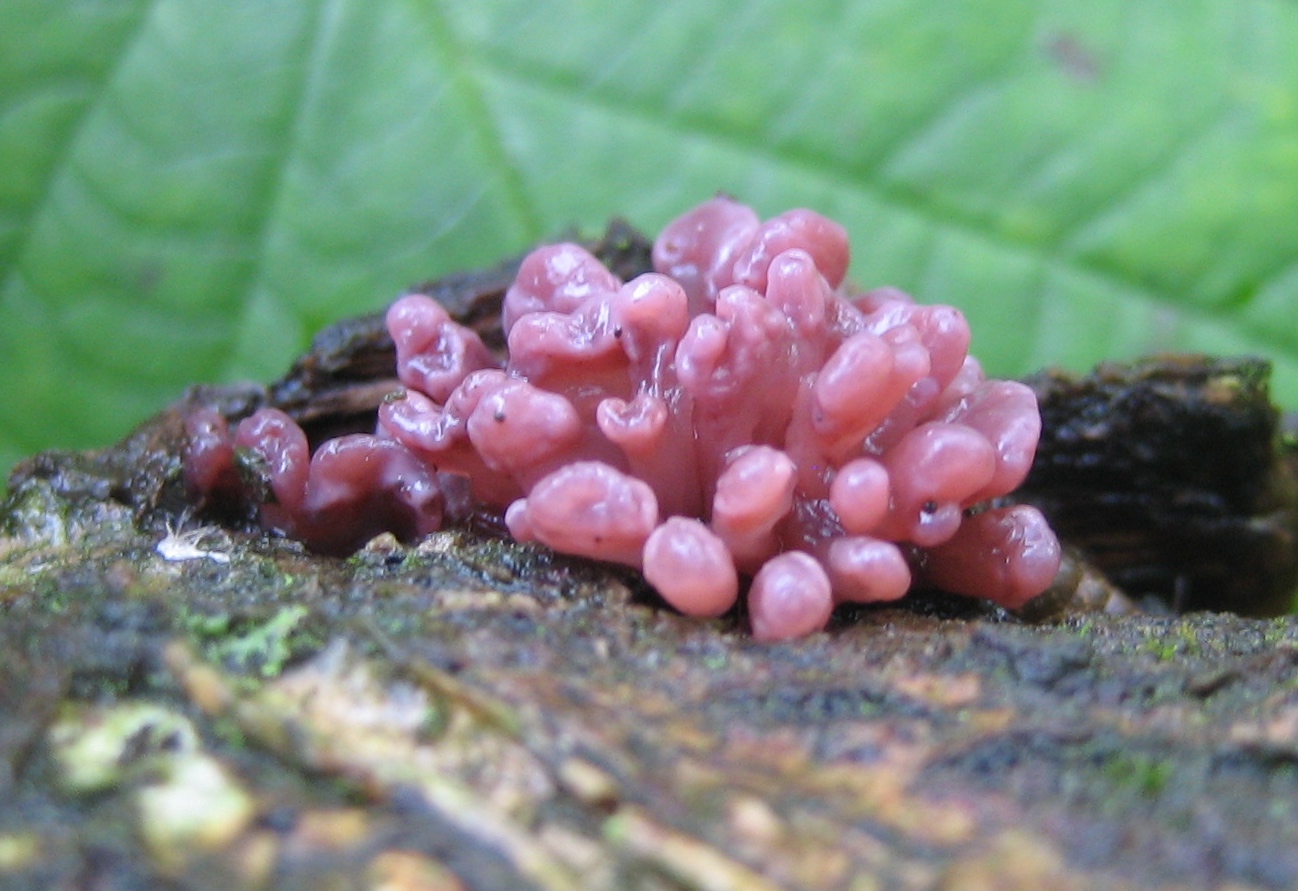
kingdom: Fungi
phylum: Ascomycota
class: Leotiomycetes
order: Helotiales
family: Gelatinodiscaceae
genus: Ascocoryne
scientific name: Ascocoryne sarcoides
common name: rødlilla sejskive
